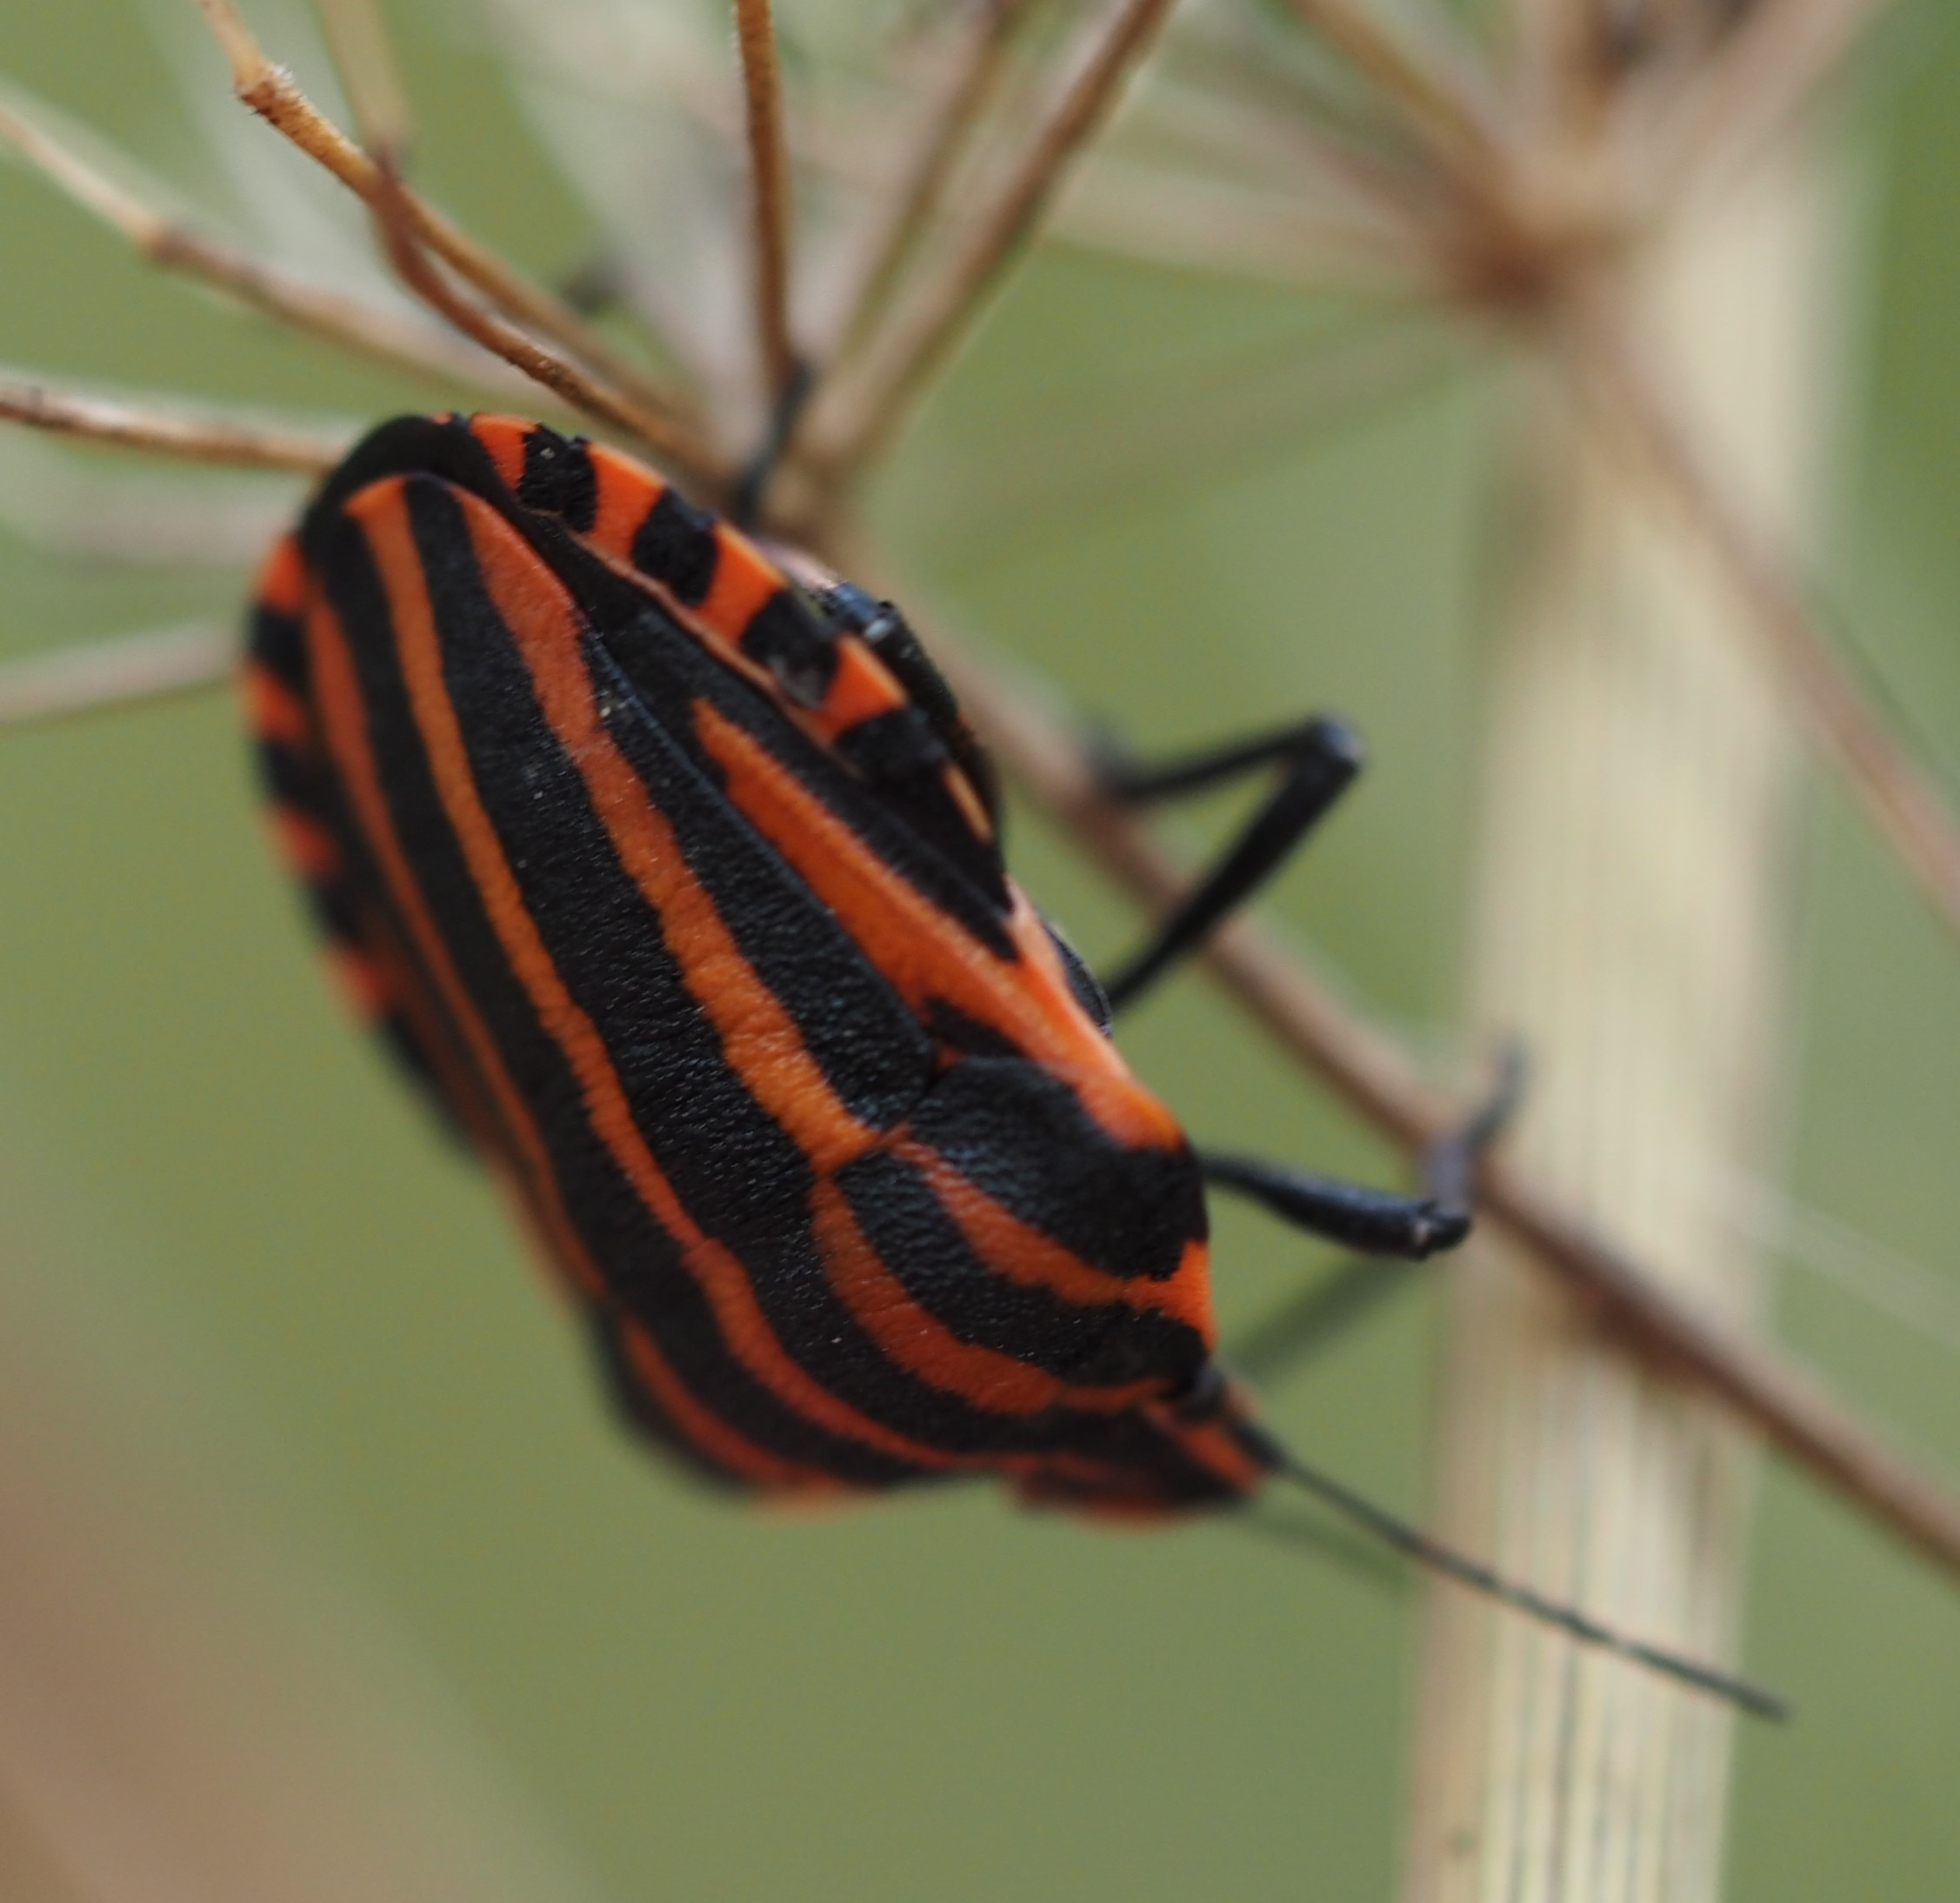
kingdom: Animalia
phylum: Arthropoda
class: Insecta
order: Hemiptera
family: Pentatomidae
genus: Graphosoma
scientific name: Graphosoma italicum
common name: Stribetæge
